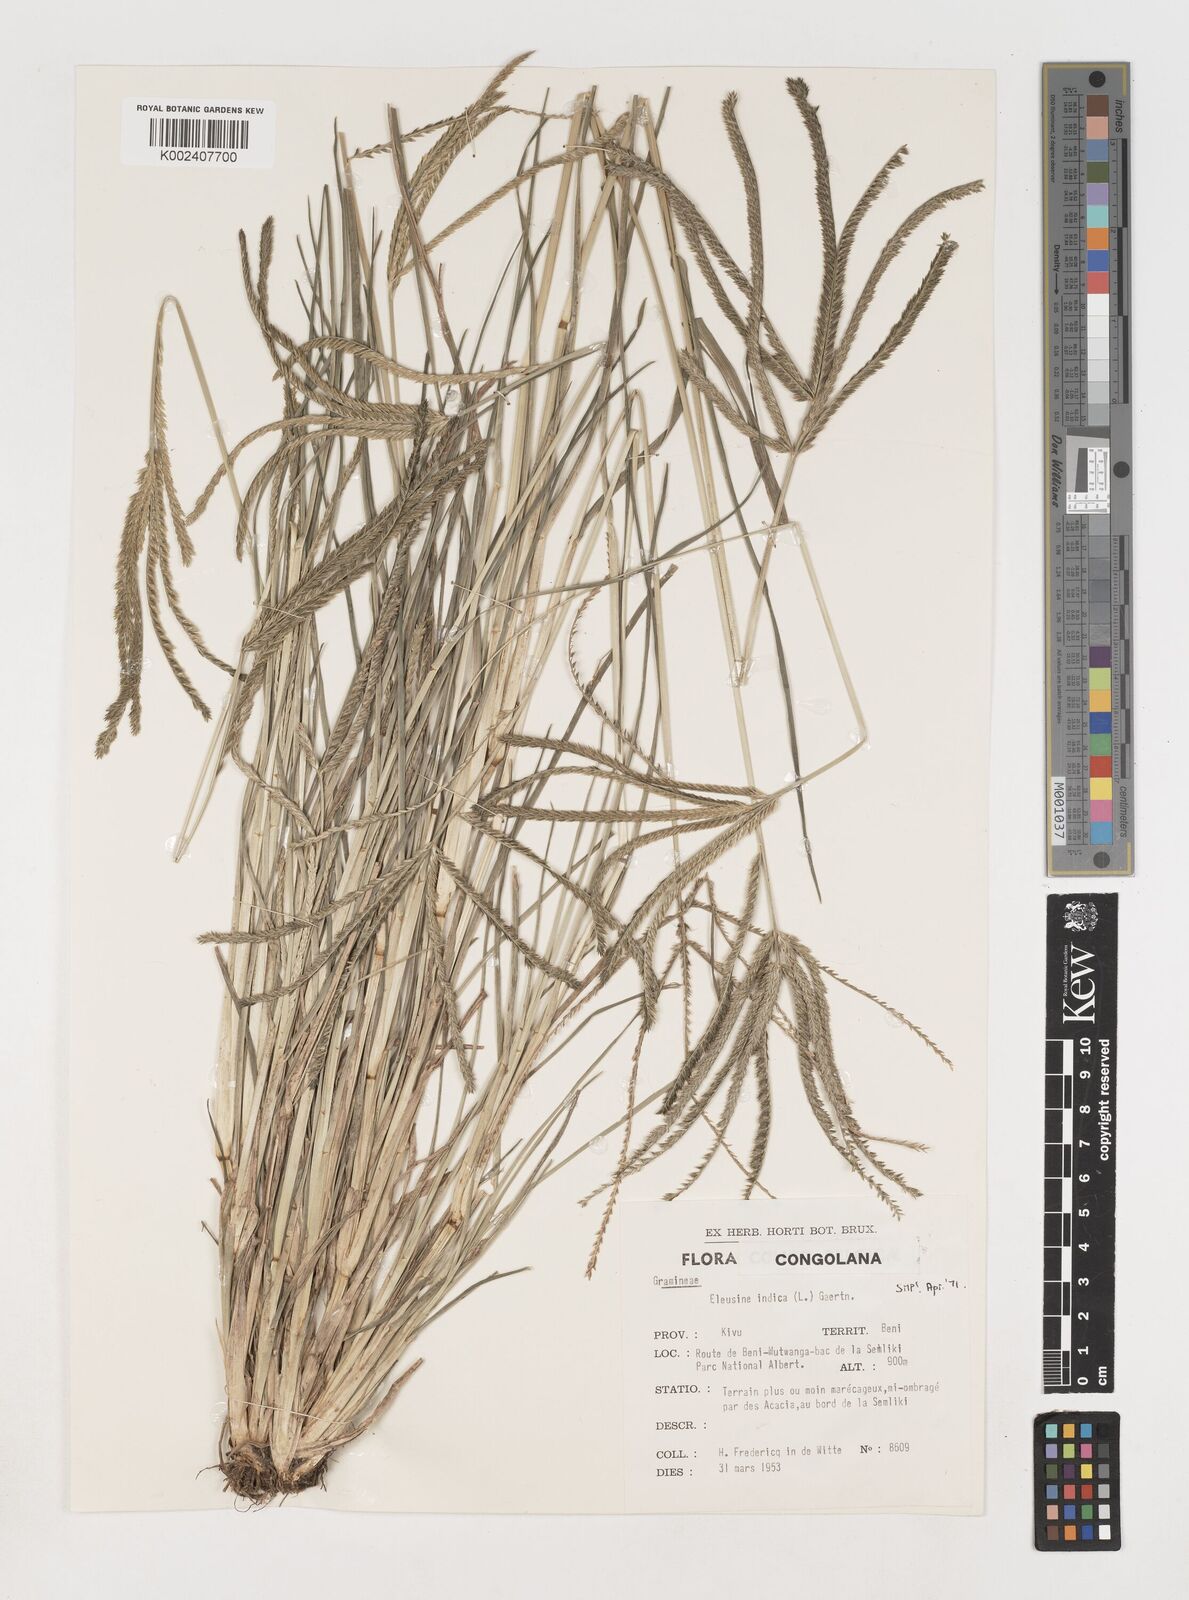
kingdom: Plantae
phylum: Tracheophyta
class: Liliopsida
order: Poales
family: Poaceae
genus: Eleusine
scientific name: Eleusine indica
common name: Yard-grass
